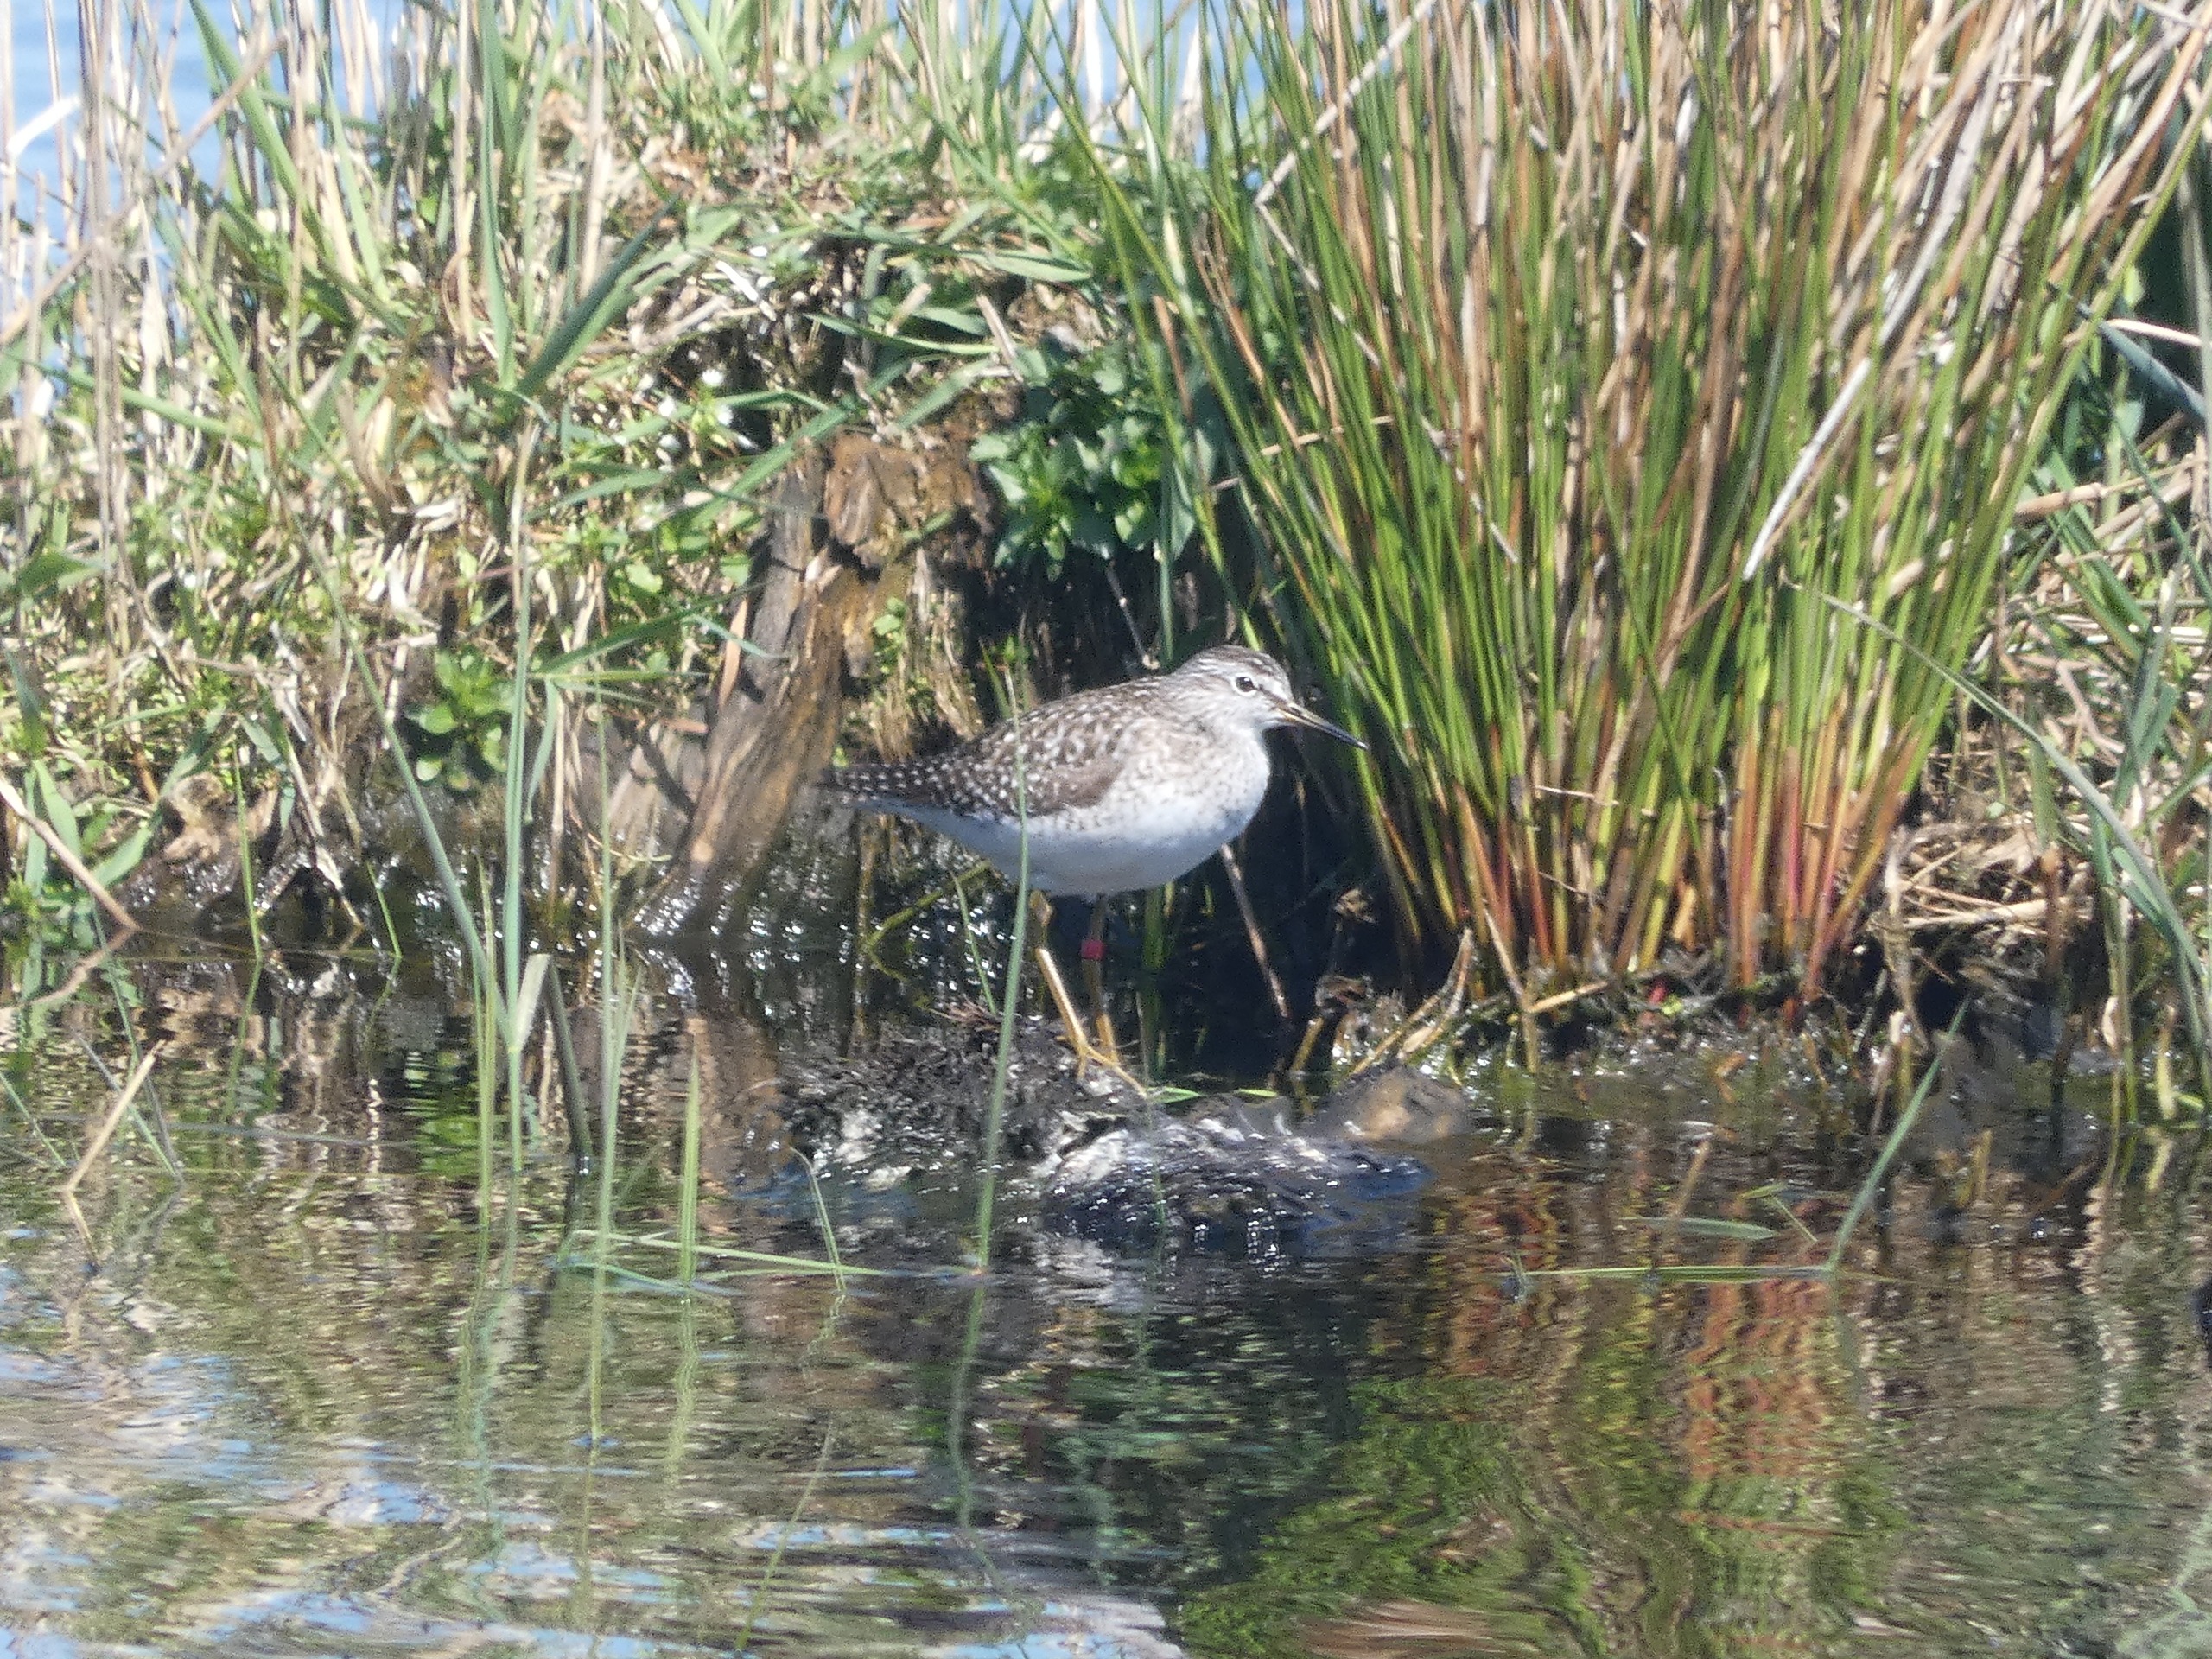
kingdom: Animalia
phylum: Chordata
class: Aves
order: Charadriiformes
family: Scolopacidae
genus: Tringa
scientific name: Tringa glareola
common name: Tinksmed
